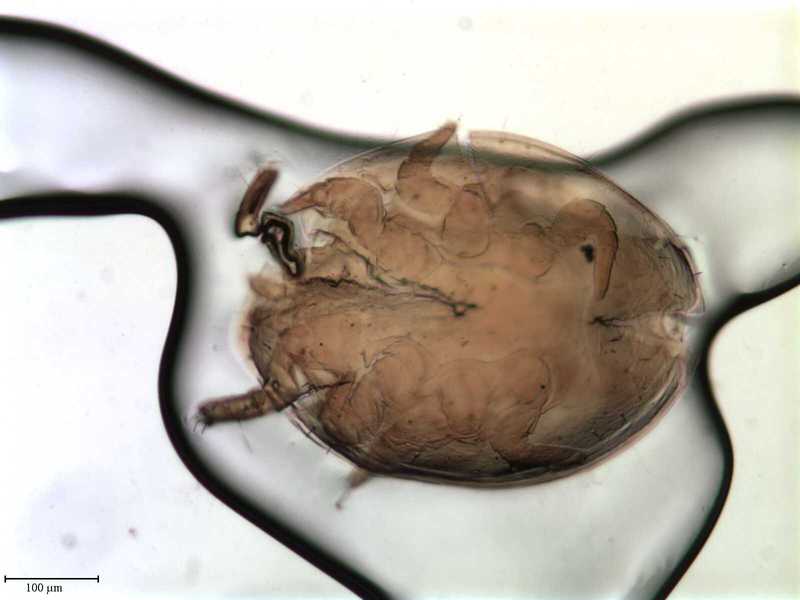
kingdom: Animalia
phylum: Arthropoda
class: Arachnida
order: Mesostigmata
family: Uropodidae
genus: Uropoda
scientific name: Uropoda
